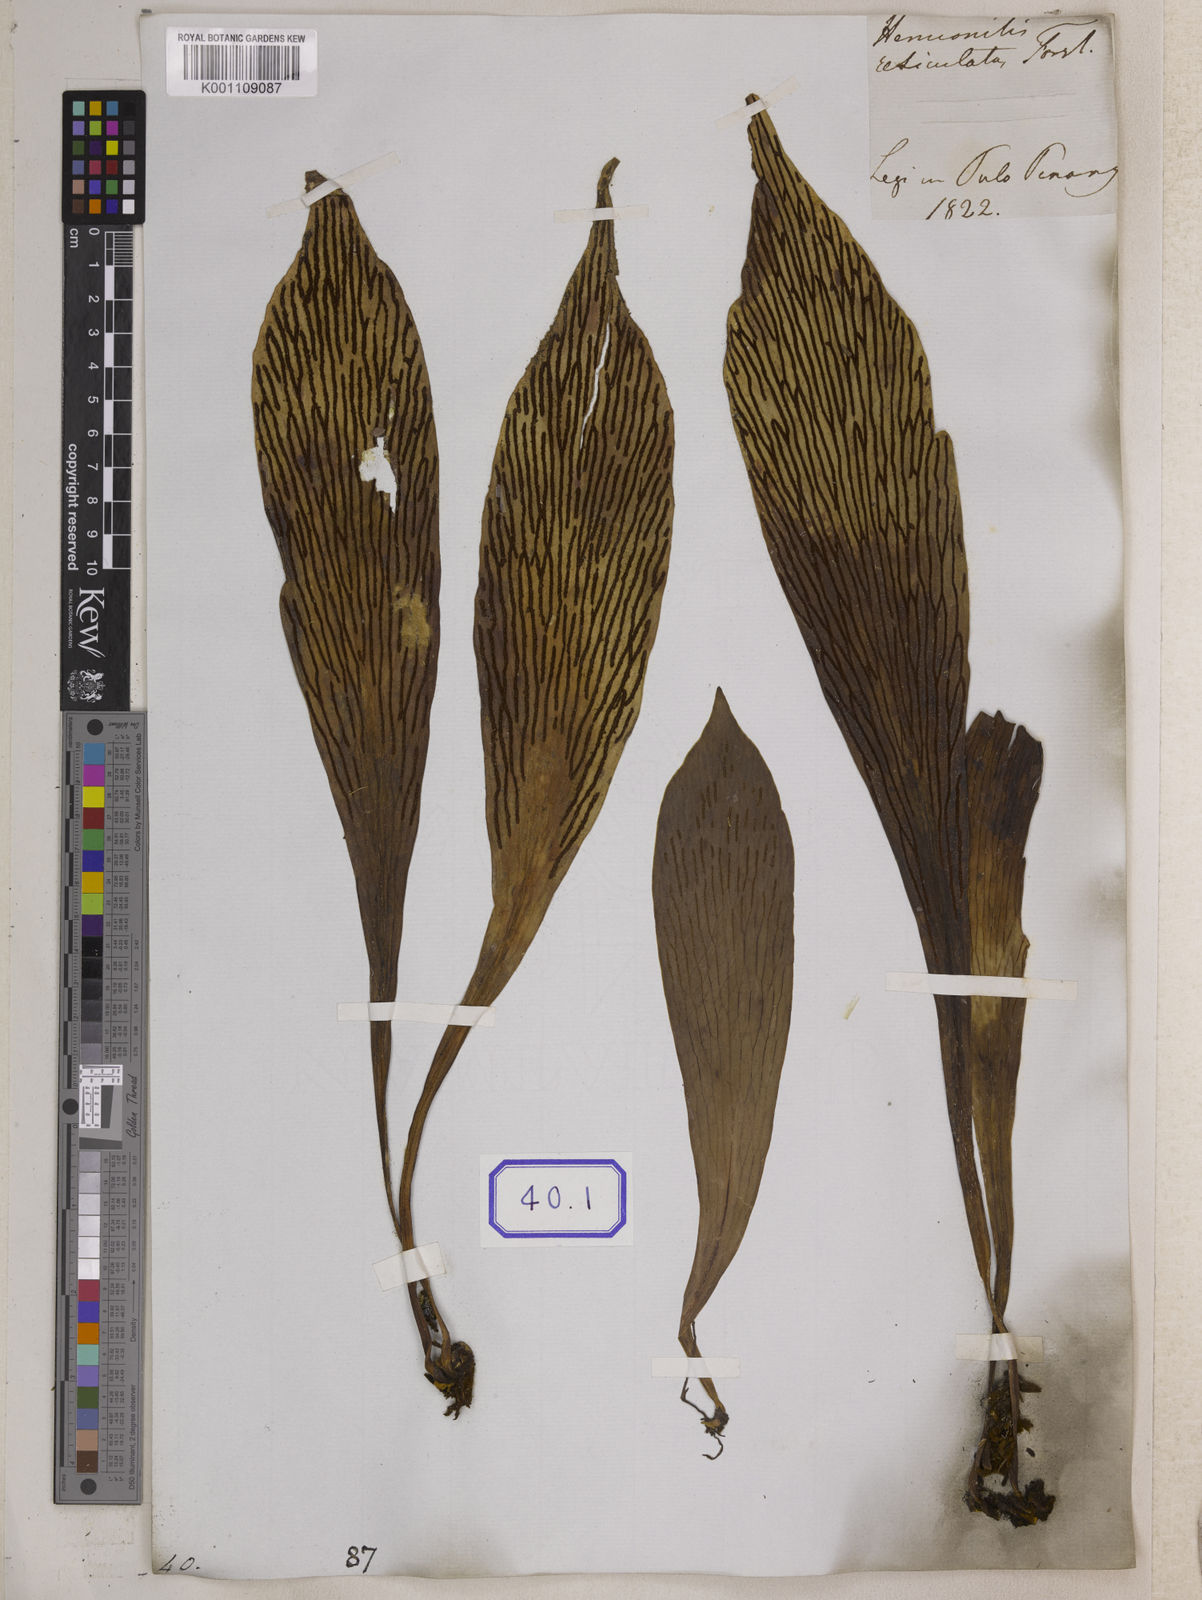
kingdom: Plantae
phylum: Tracheophyta
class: Polypodiopsida
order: Polypodiales
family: Pteridaceae
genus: Antrophyum
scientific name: Antrophyum reticulatum
